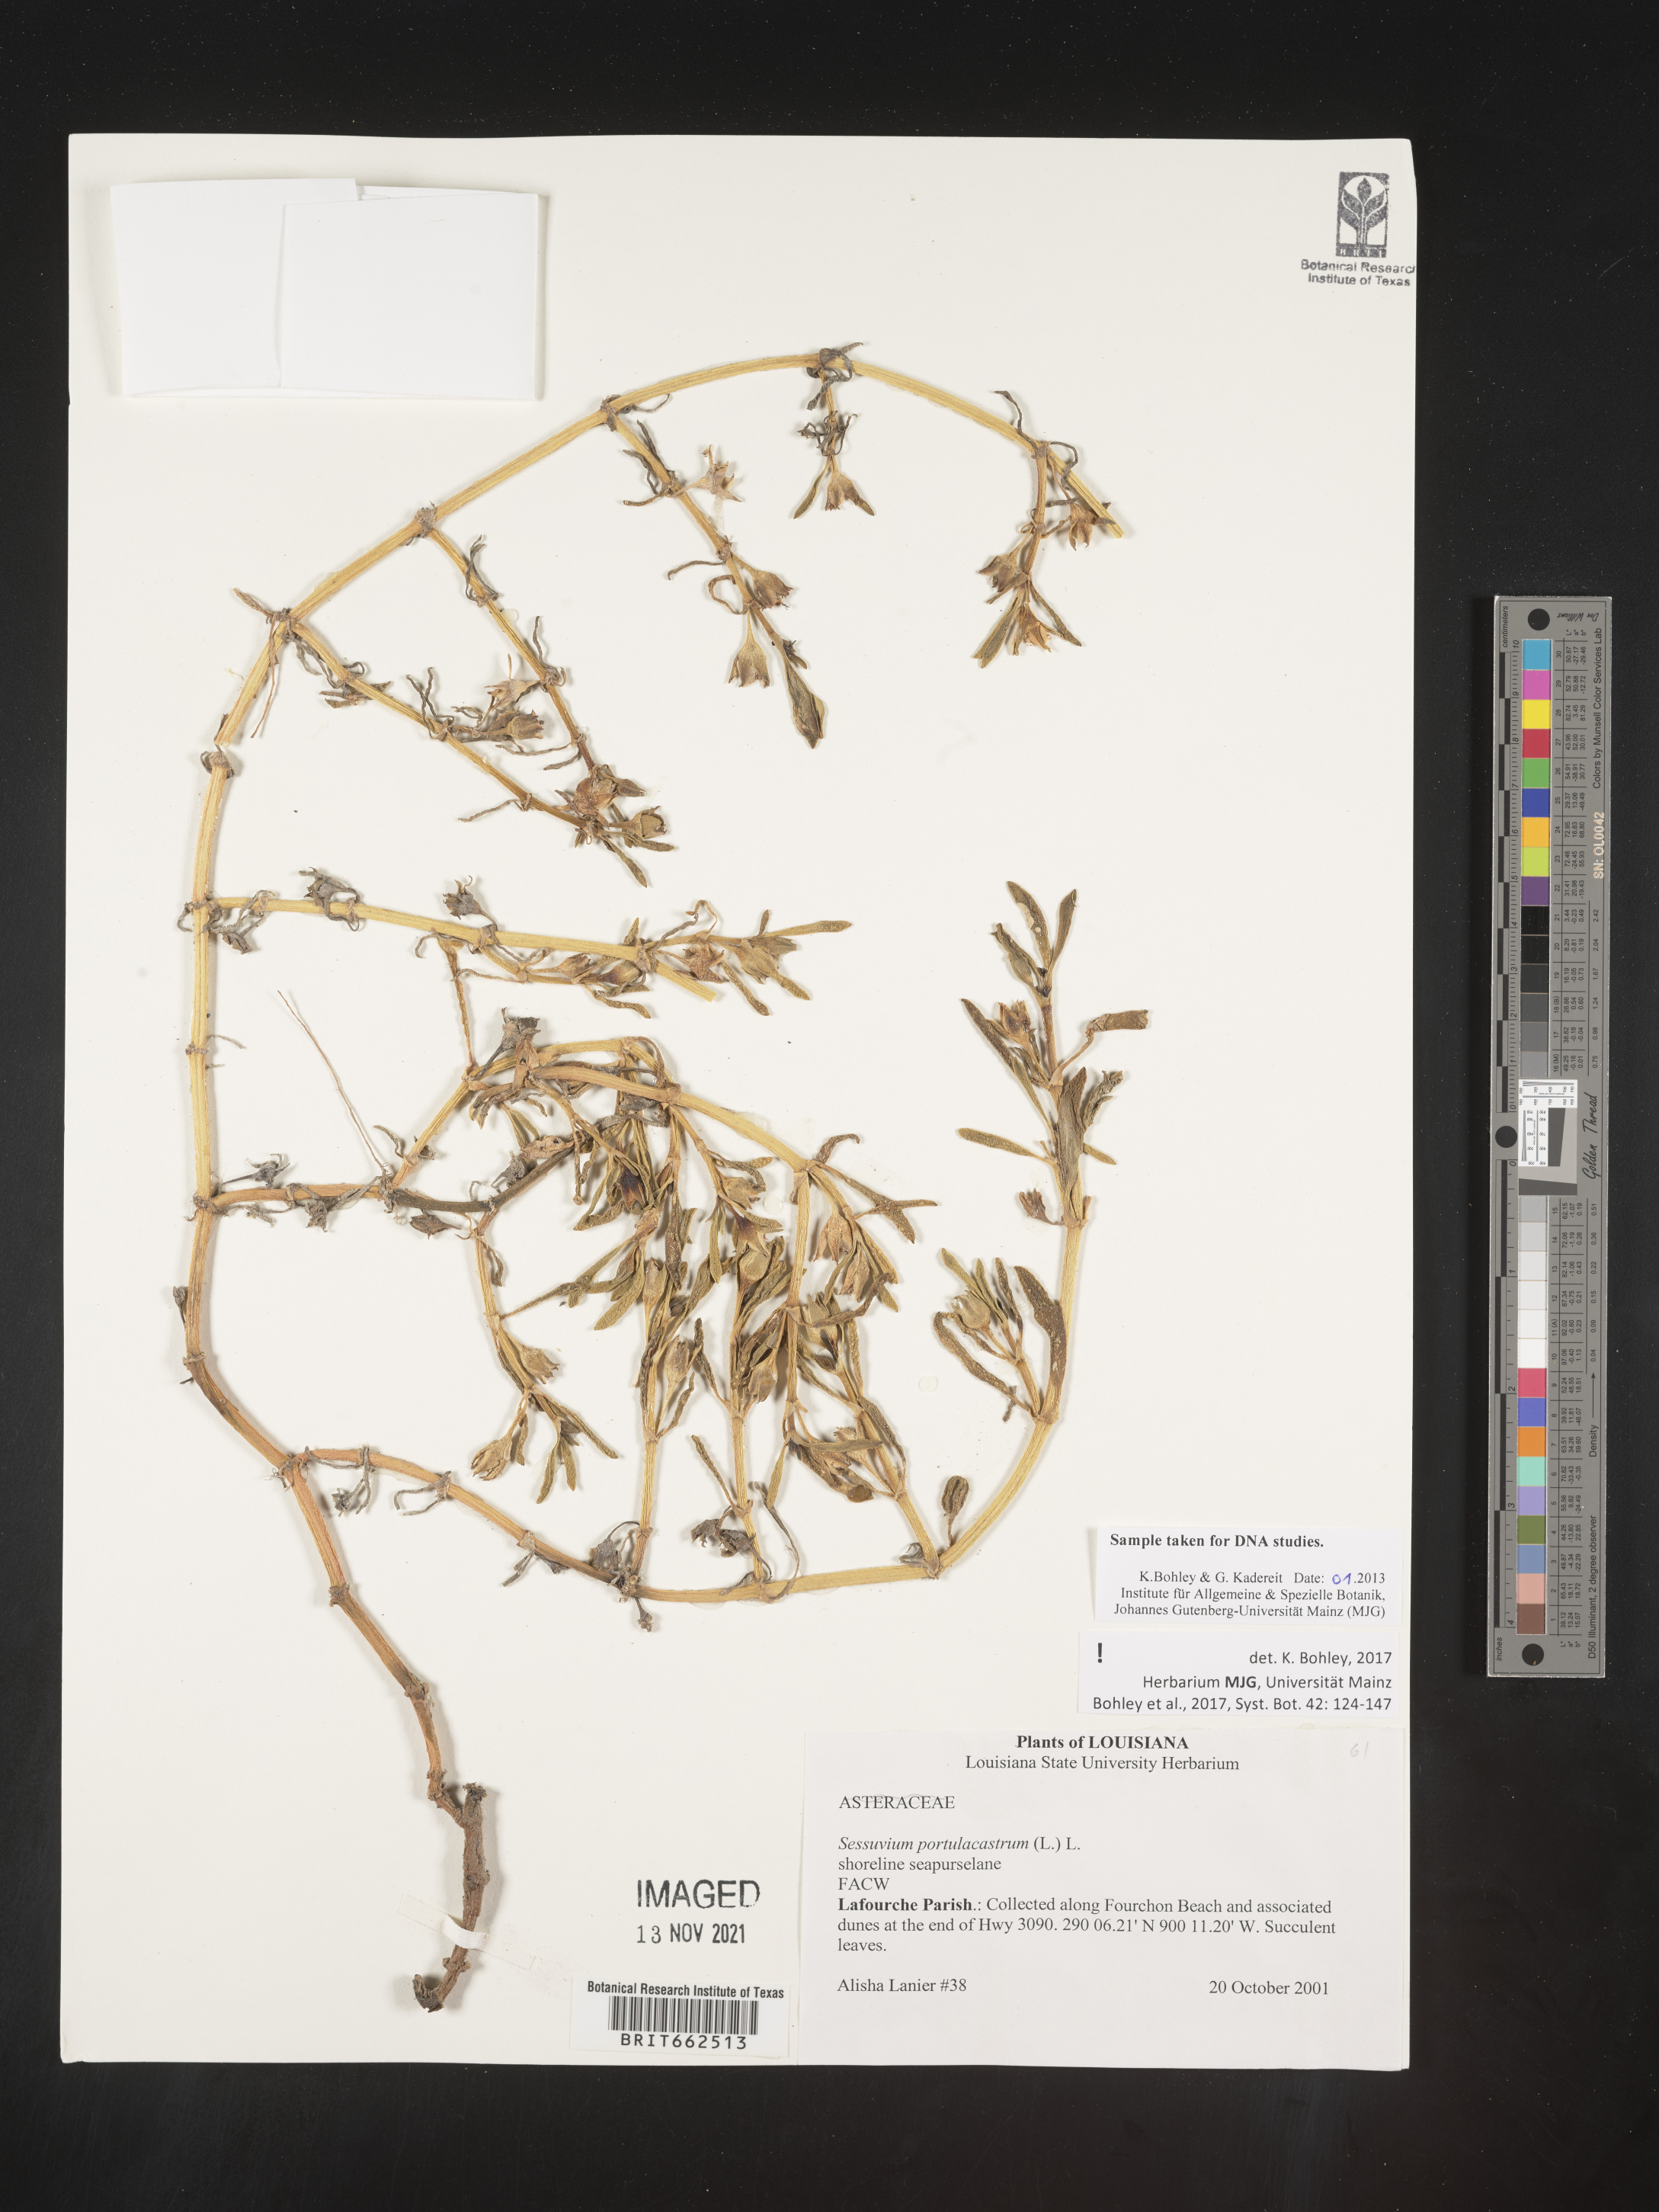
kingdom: Plantae
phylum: Tracheophyta
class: Magnoliopsida
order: Caryophyllales
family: Aizoaceae
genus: Sesuvium
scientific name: Sesuvium portulacastrum
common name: Sea-purslane
